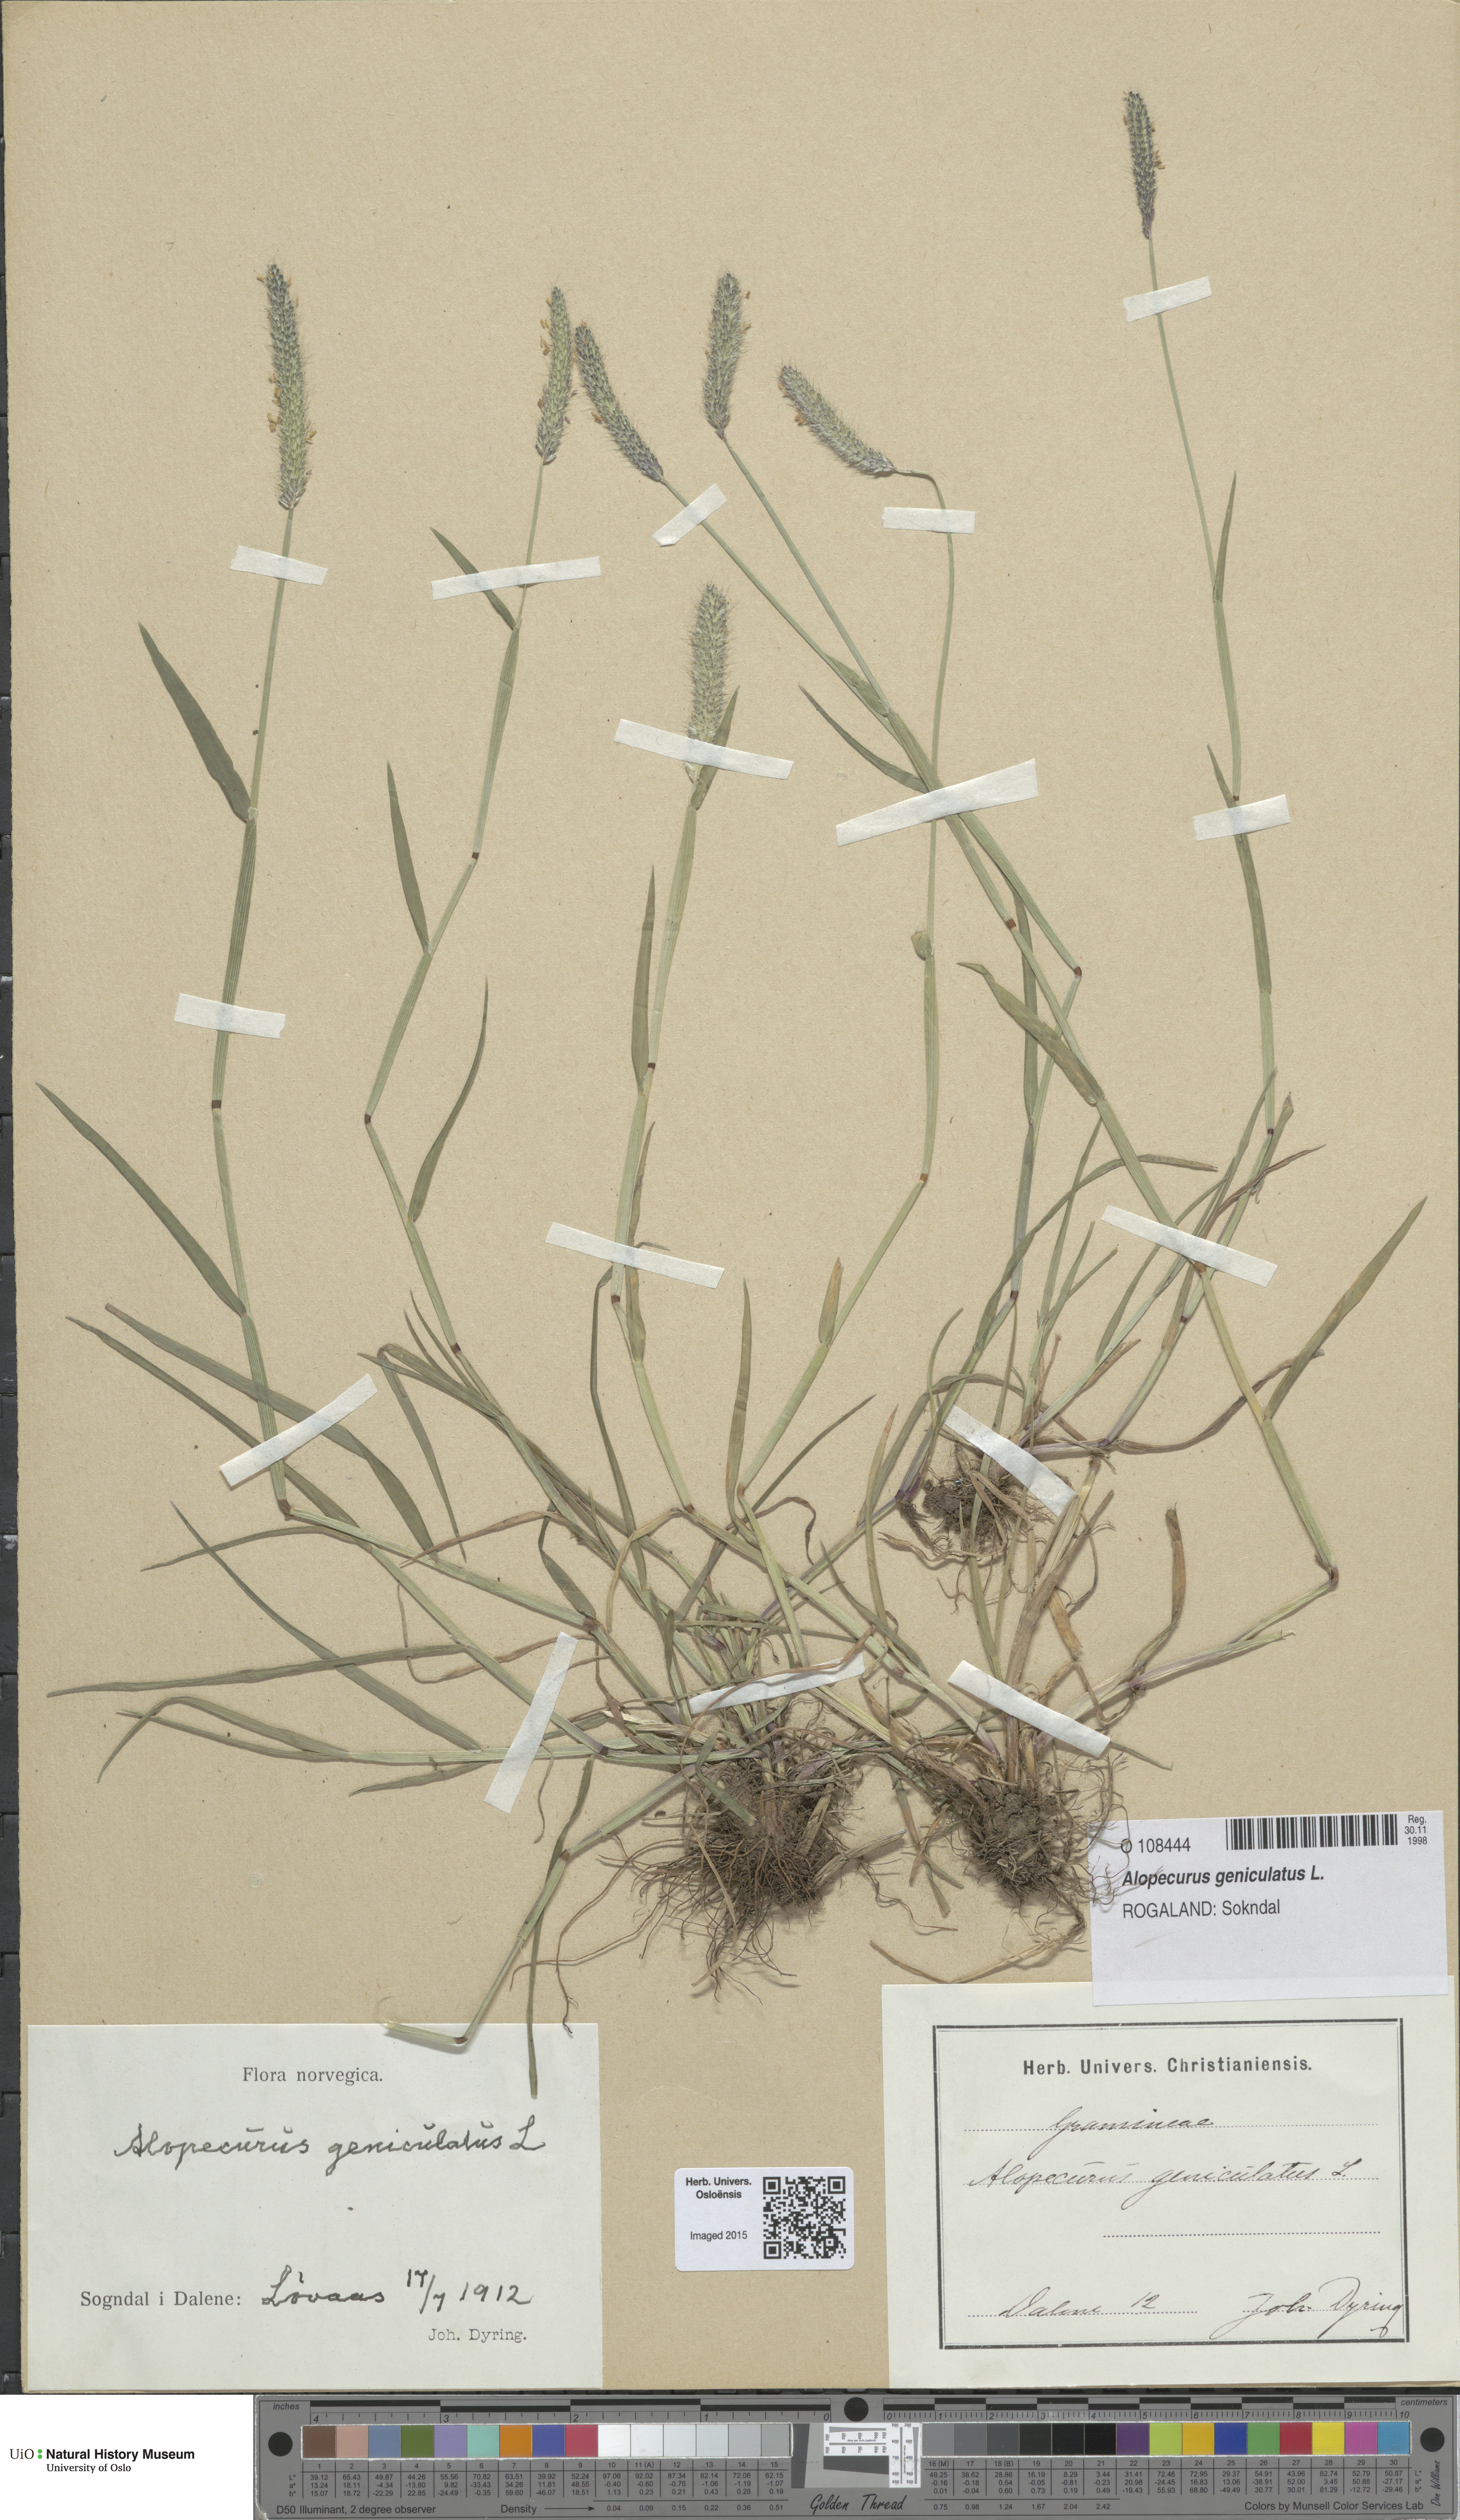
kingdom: Plantae
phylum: Tracheophyta
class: Liliopsida
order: Poales
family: Poaceae
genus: Alopecurus
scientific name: Alopecurus geniculatus
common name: Water foxtail
